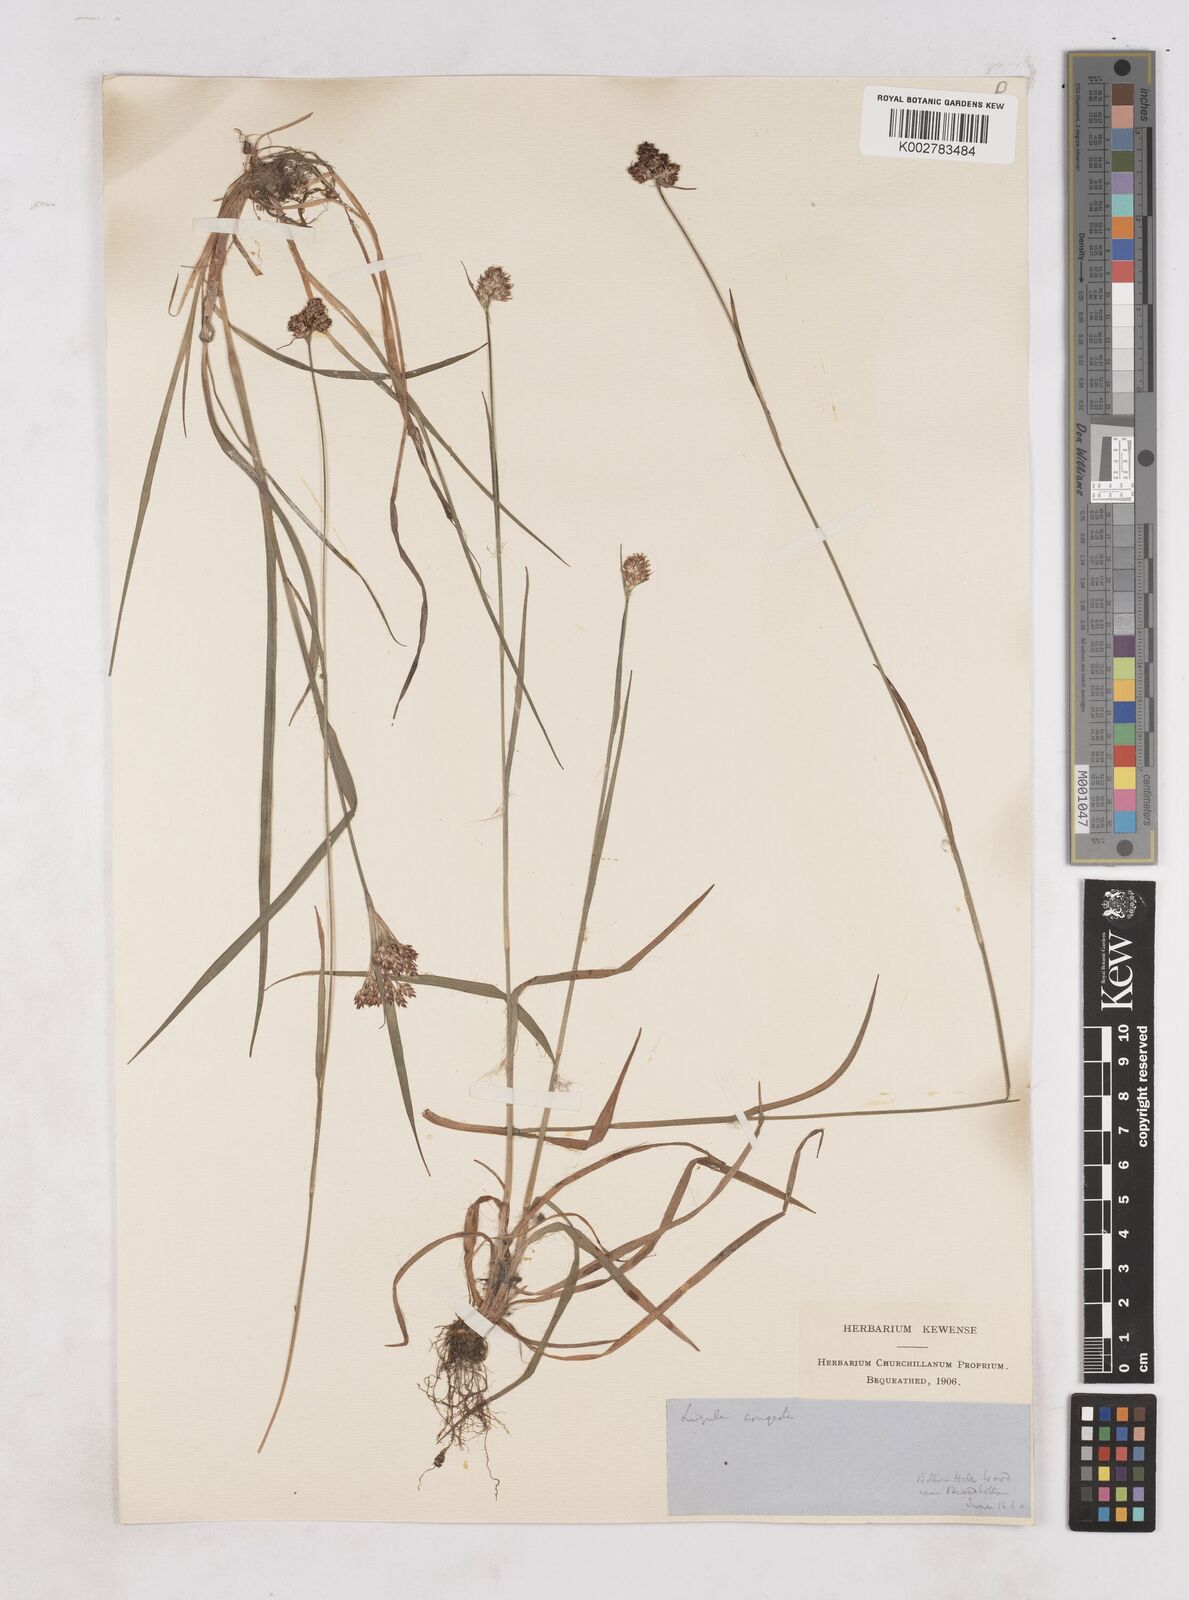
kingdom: Plantae
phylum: Tracheophyta
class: Liliopsida
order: Poales
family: Juncaceae
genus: Luzula
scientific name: Luzula campestris
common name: Field wood-rush
